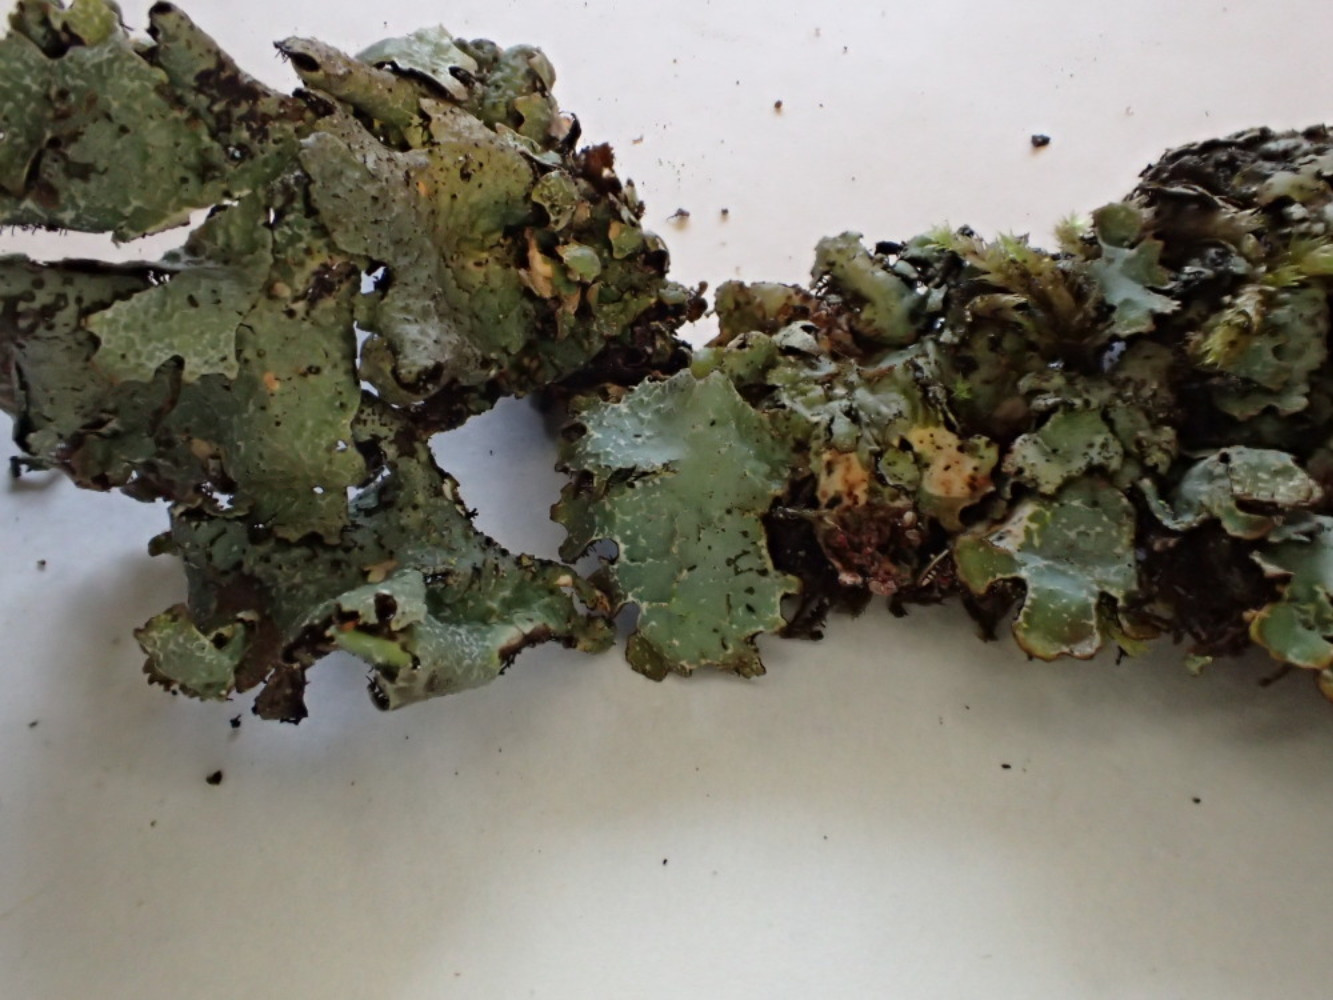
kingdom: Fungi
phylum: Ascomycota
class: Lecanoromycetes
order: Lecanorales
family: Parmeliaceae
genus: Parmelia
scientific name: Parmelia ernstiae
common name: rimstift-skållav
